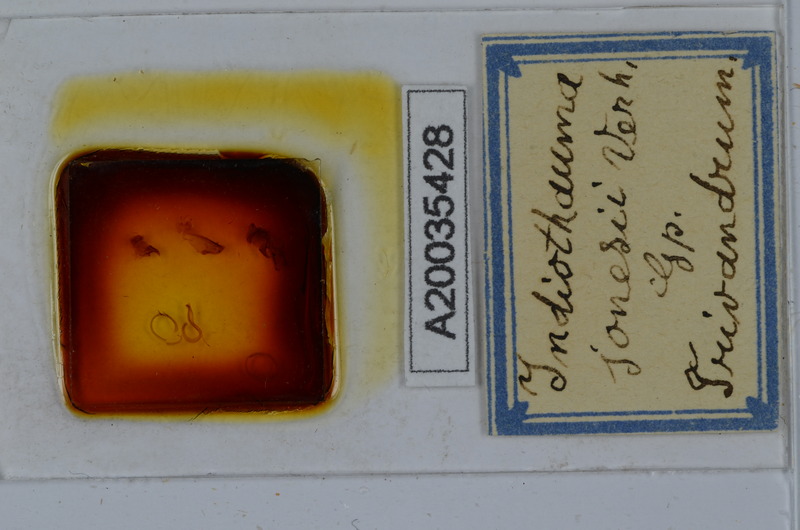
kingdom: Animalia
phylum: Arthropoda
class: Diplopoda
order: Spirostreptida
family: Harpagophoridae
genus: Harpurostreptus
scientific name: Harpurostreptus jonesi
